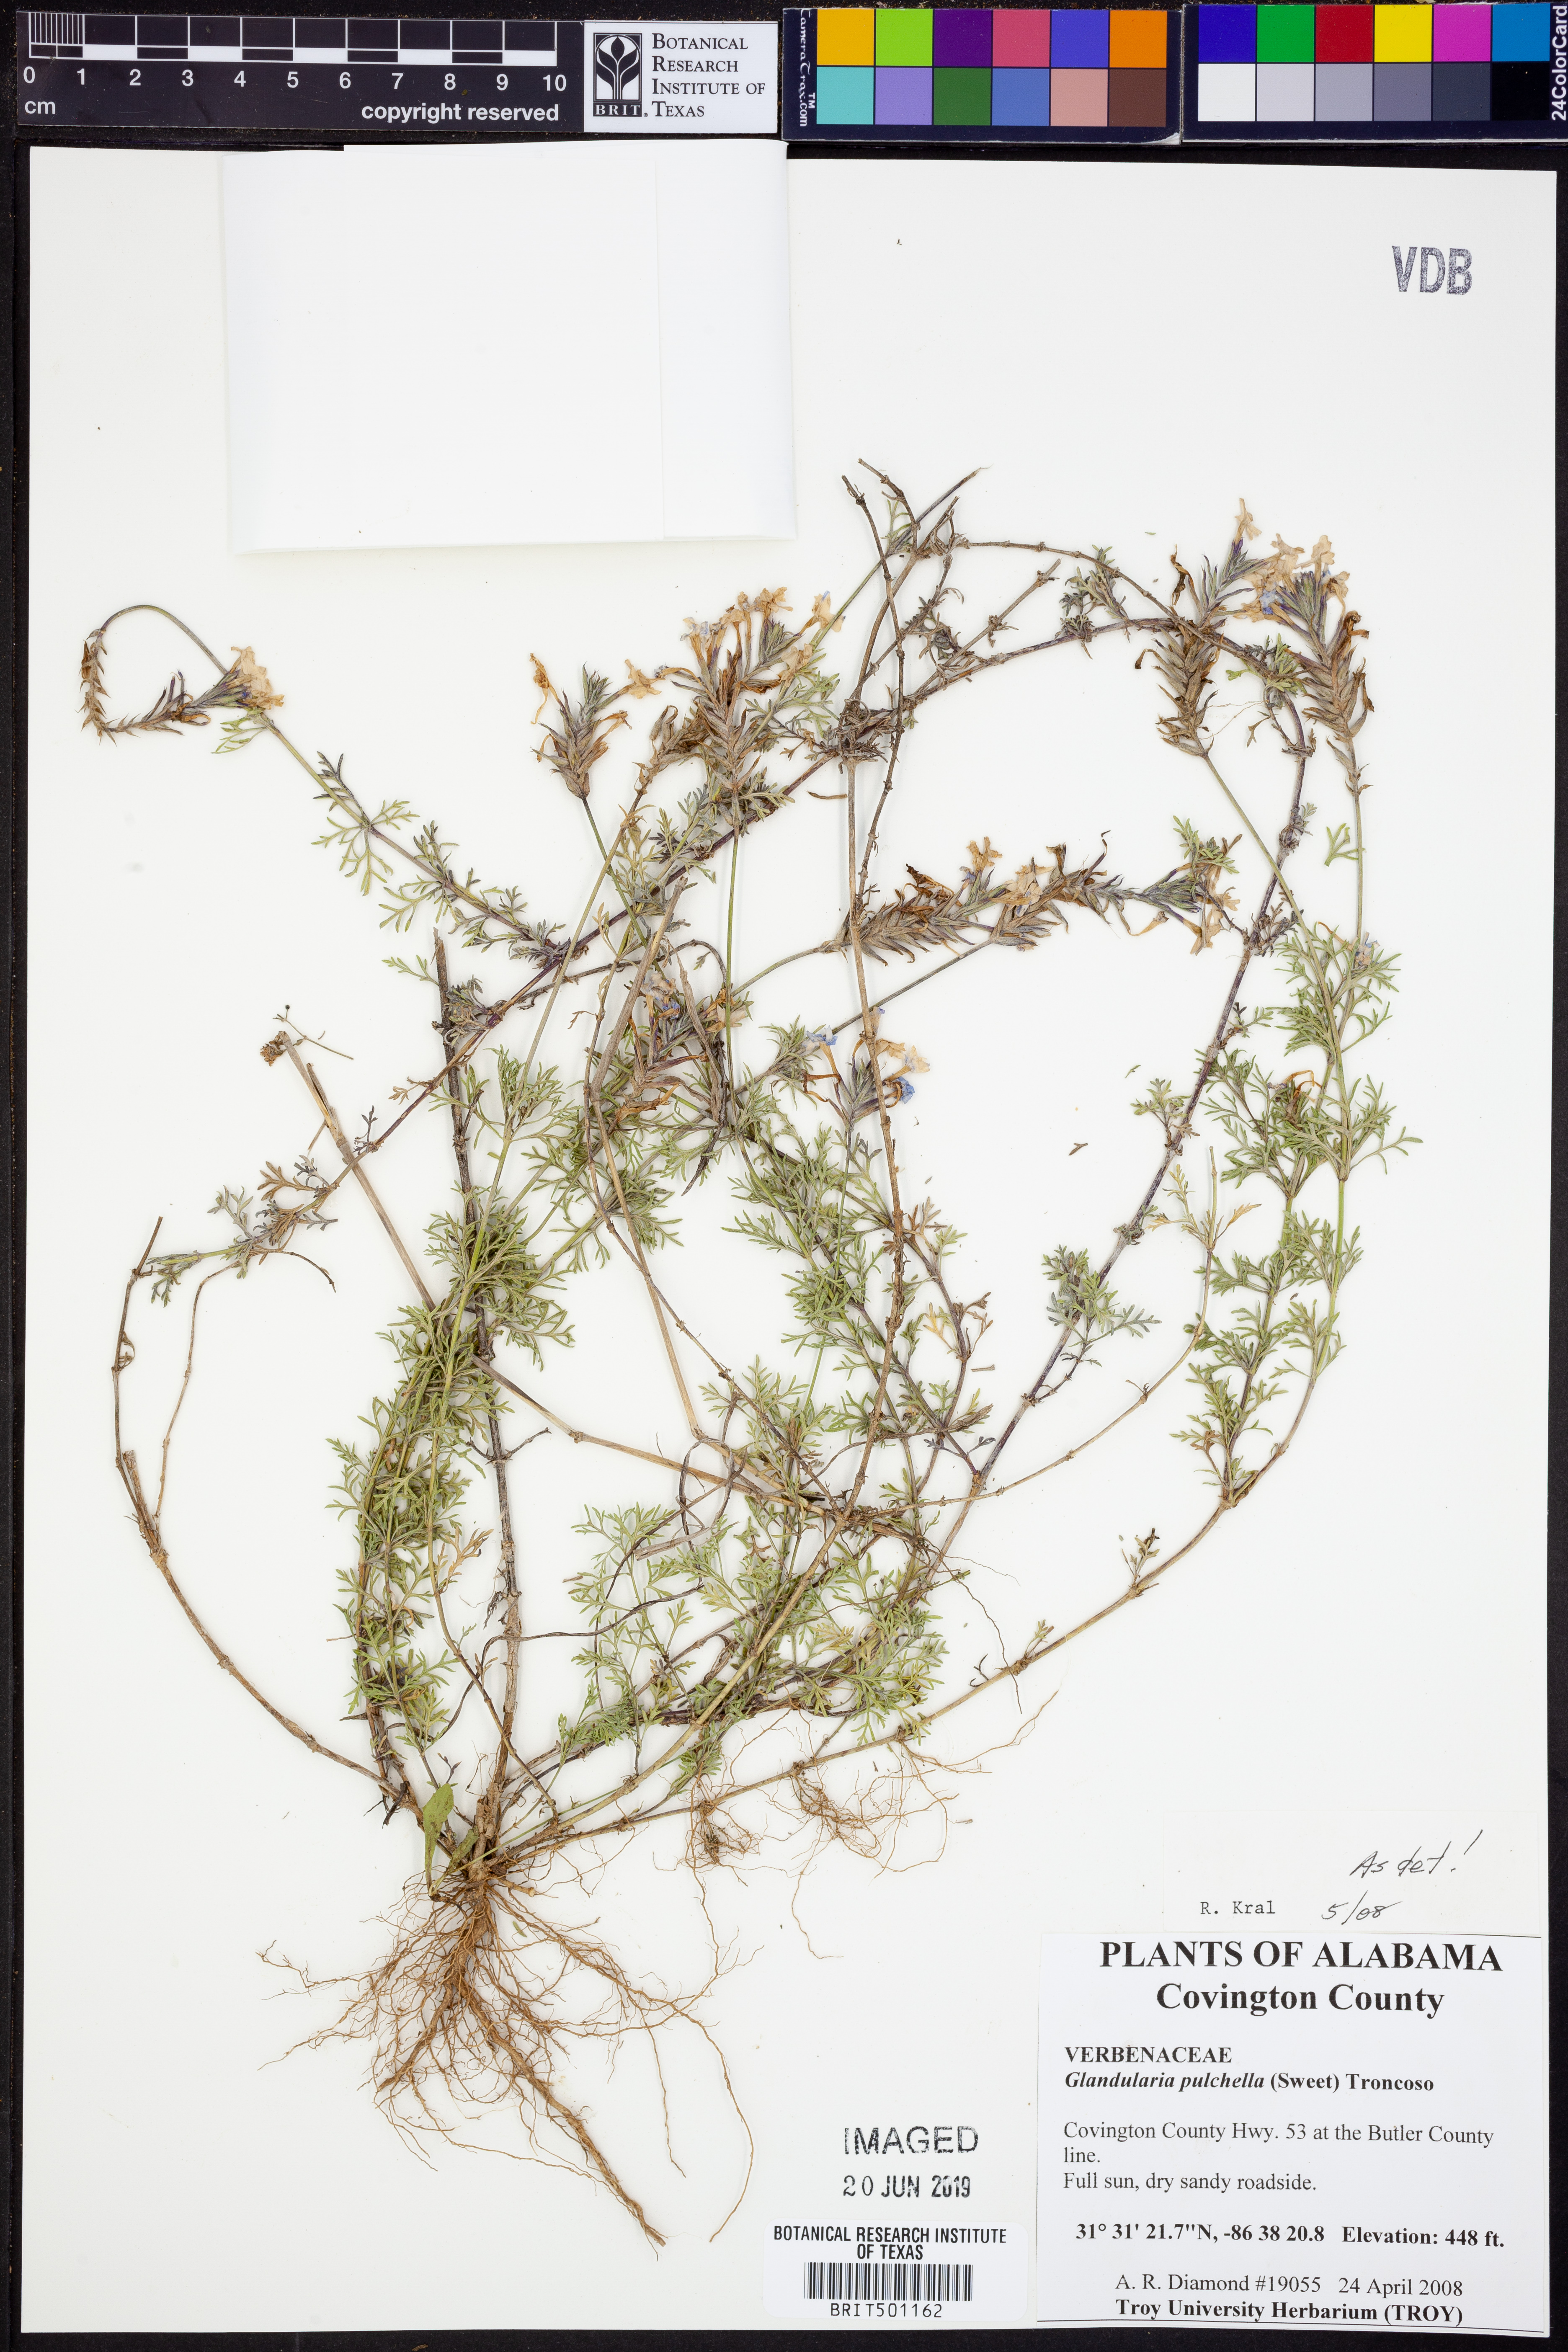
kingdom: Plantae
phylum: Tracheophyta
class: Magnoliopsida
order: Lamiales
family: Verbenaceae
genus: Verbena
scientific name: Verbena tenera
